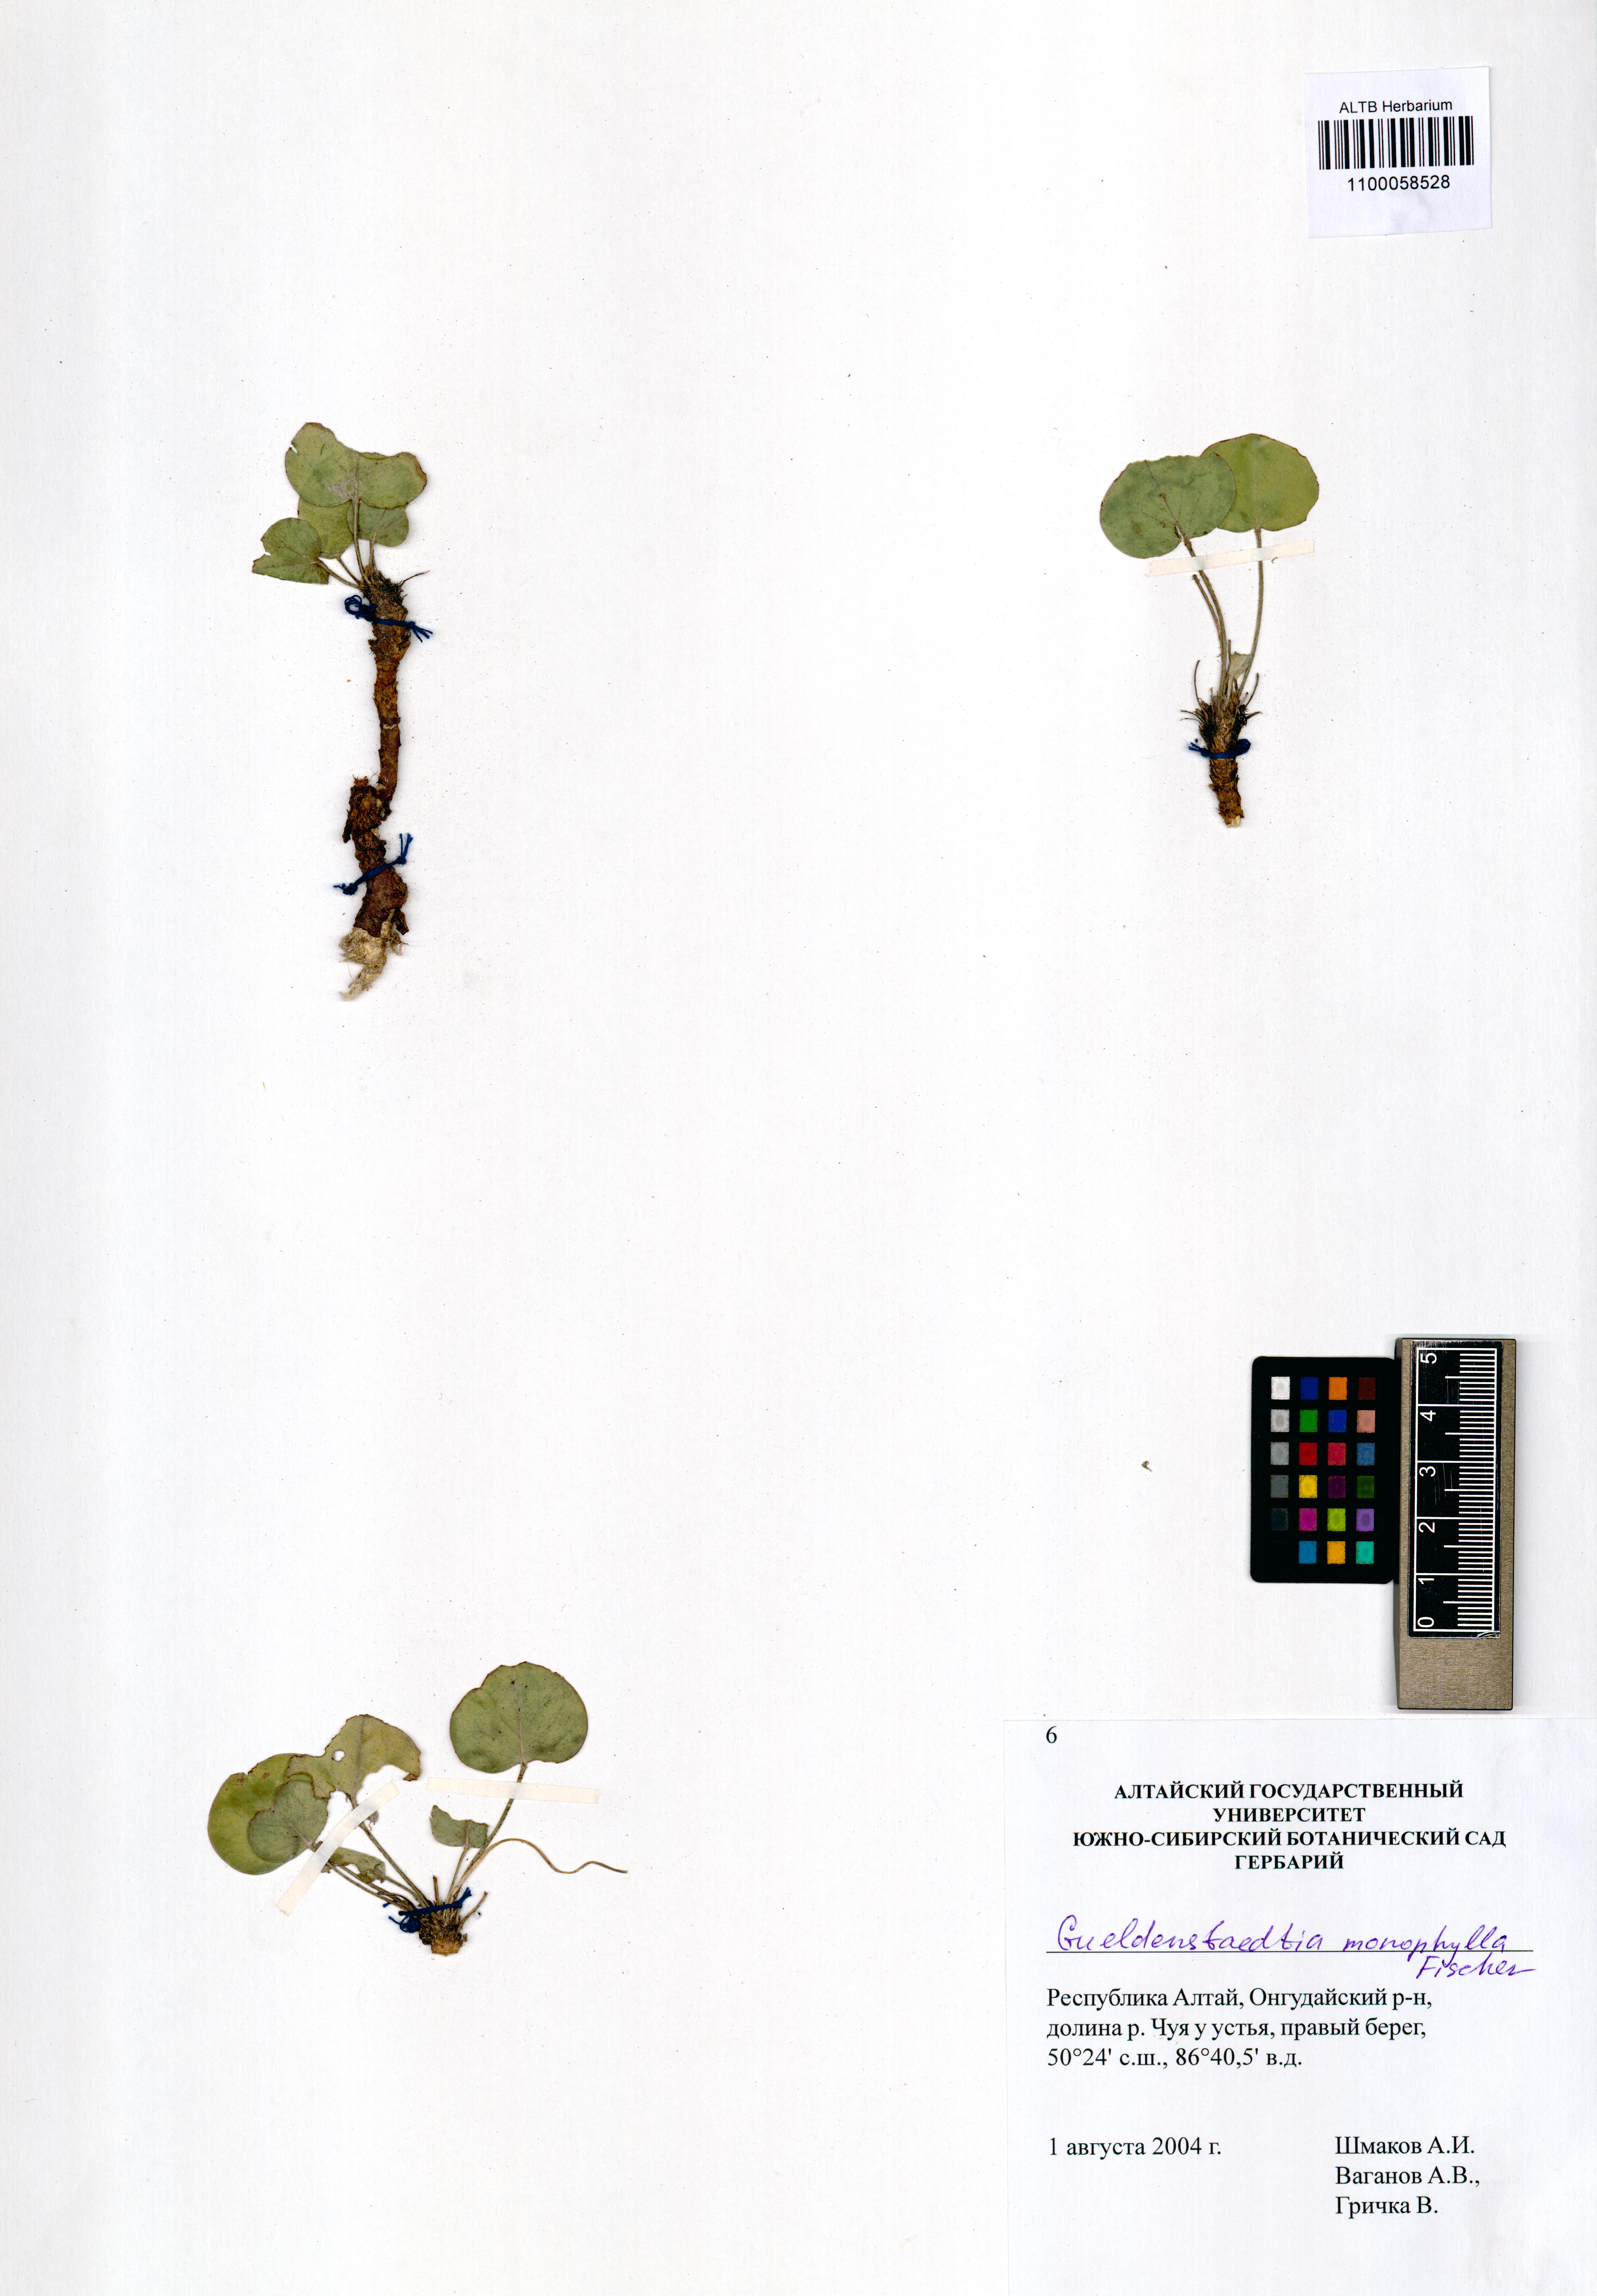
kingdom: Plantae
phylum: Tracheophyta
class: Magnoliopsida
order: Fabales
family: Fabaceae
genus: Gueldenstaedtia
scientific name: Gueldenstaedtia monophylla
